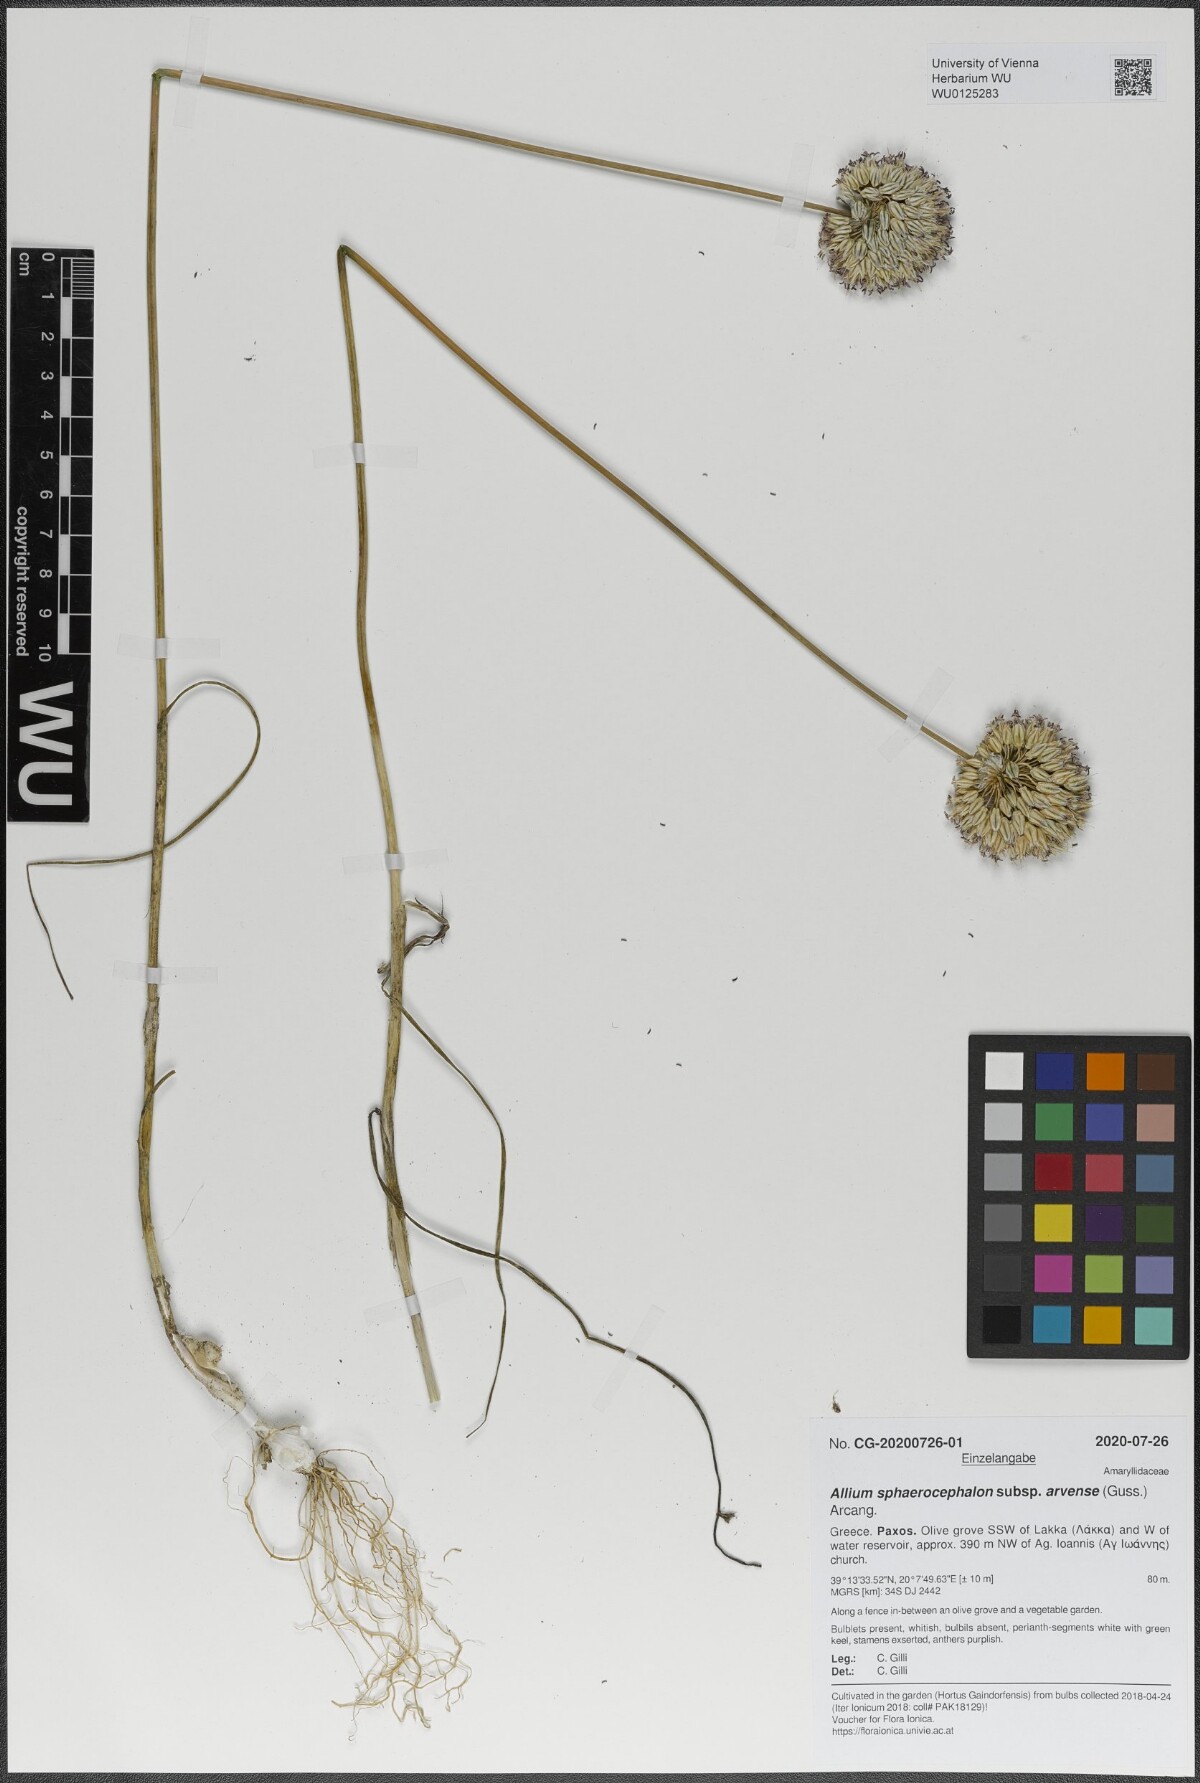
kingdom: Plantae
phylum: Tracheophyta
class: Liliopsida
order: Asparagales
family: Amaryllidaceae
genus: Allium
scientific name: Allium sphaerocephalon
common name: Round-headed leek
